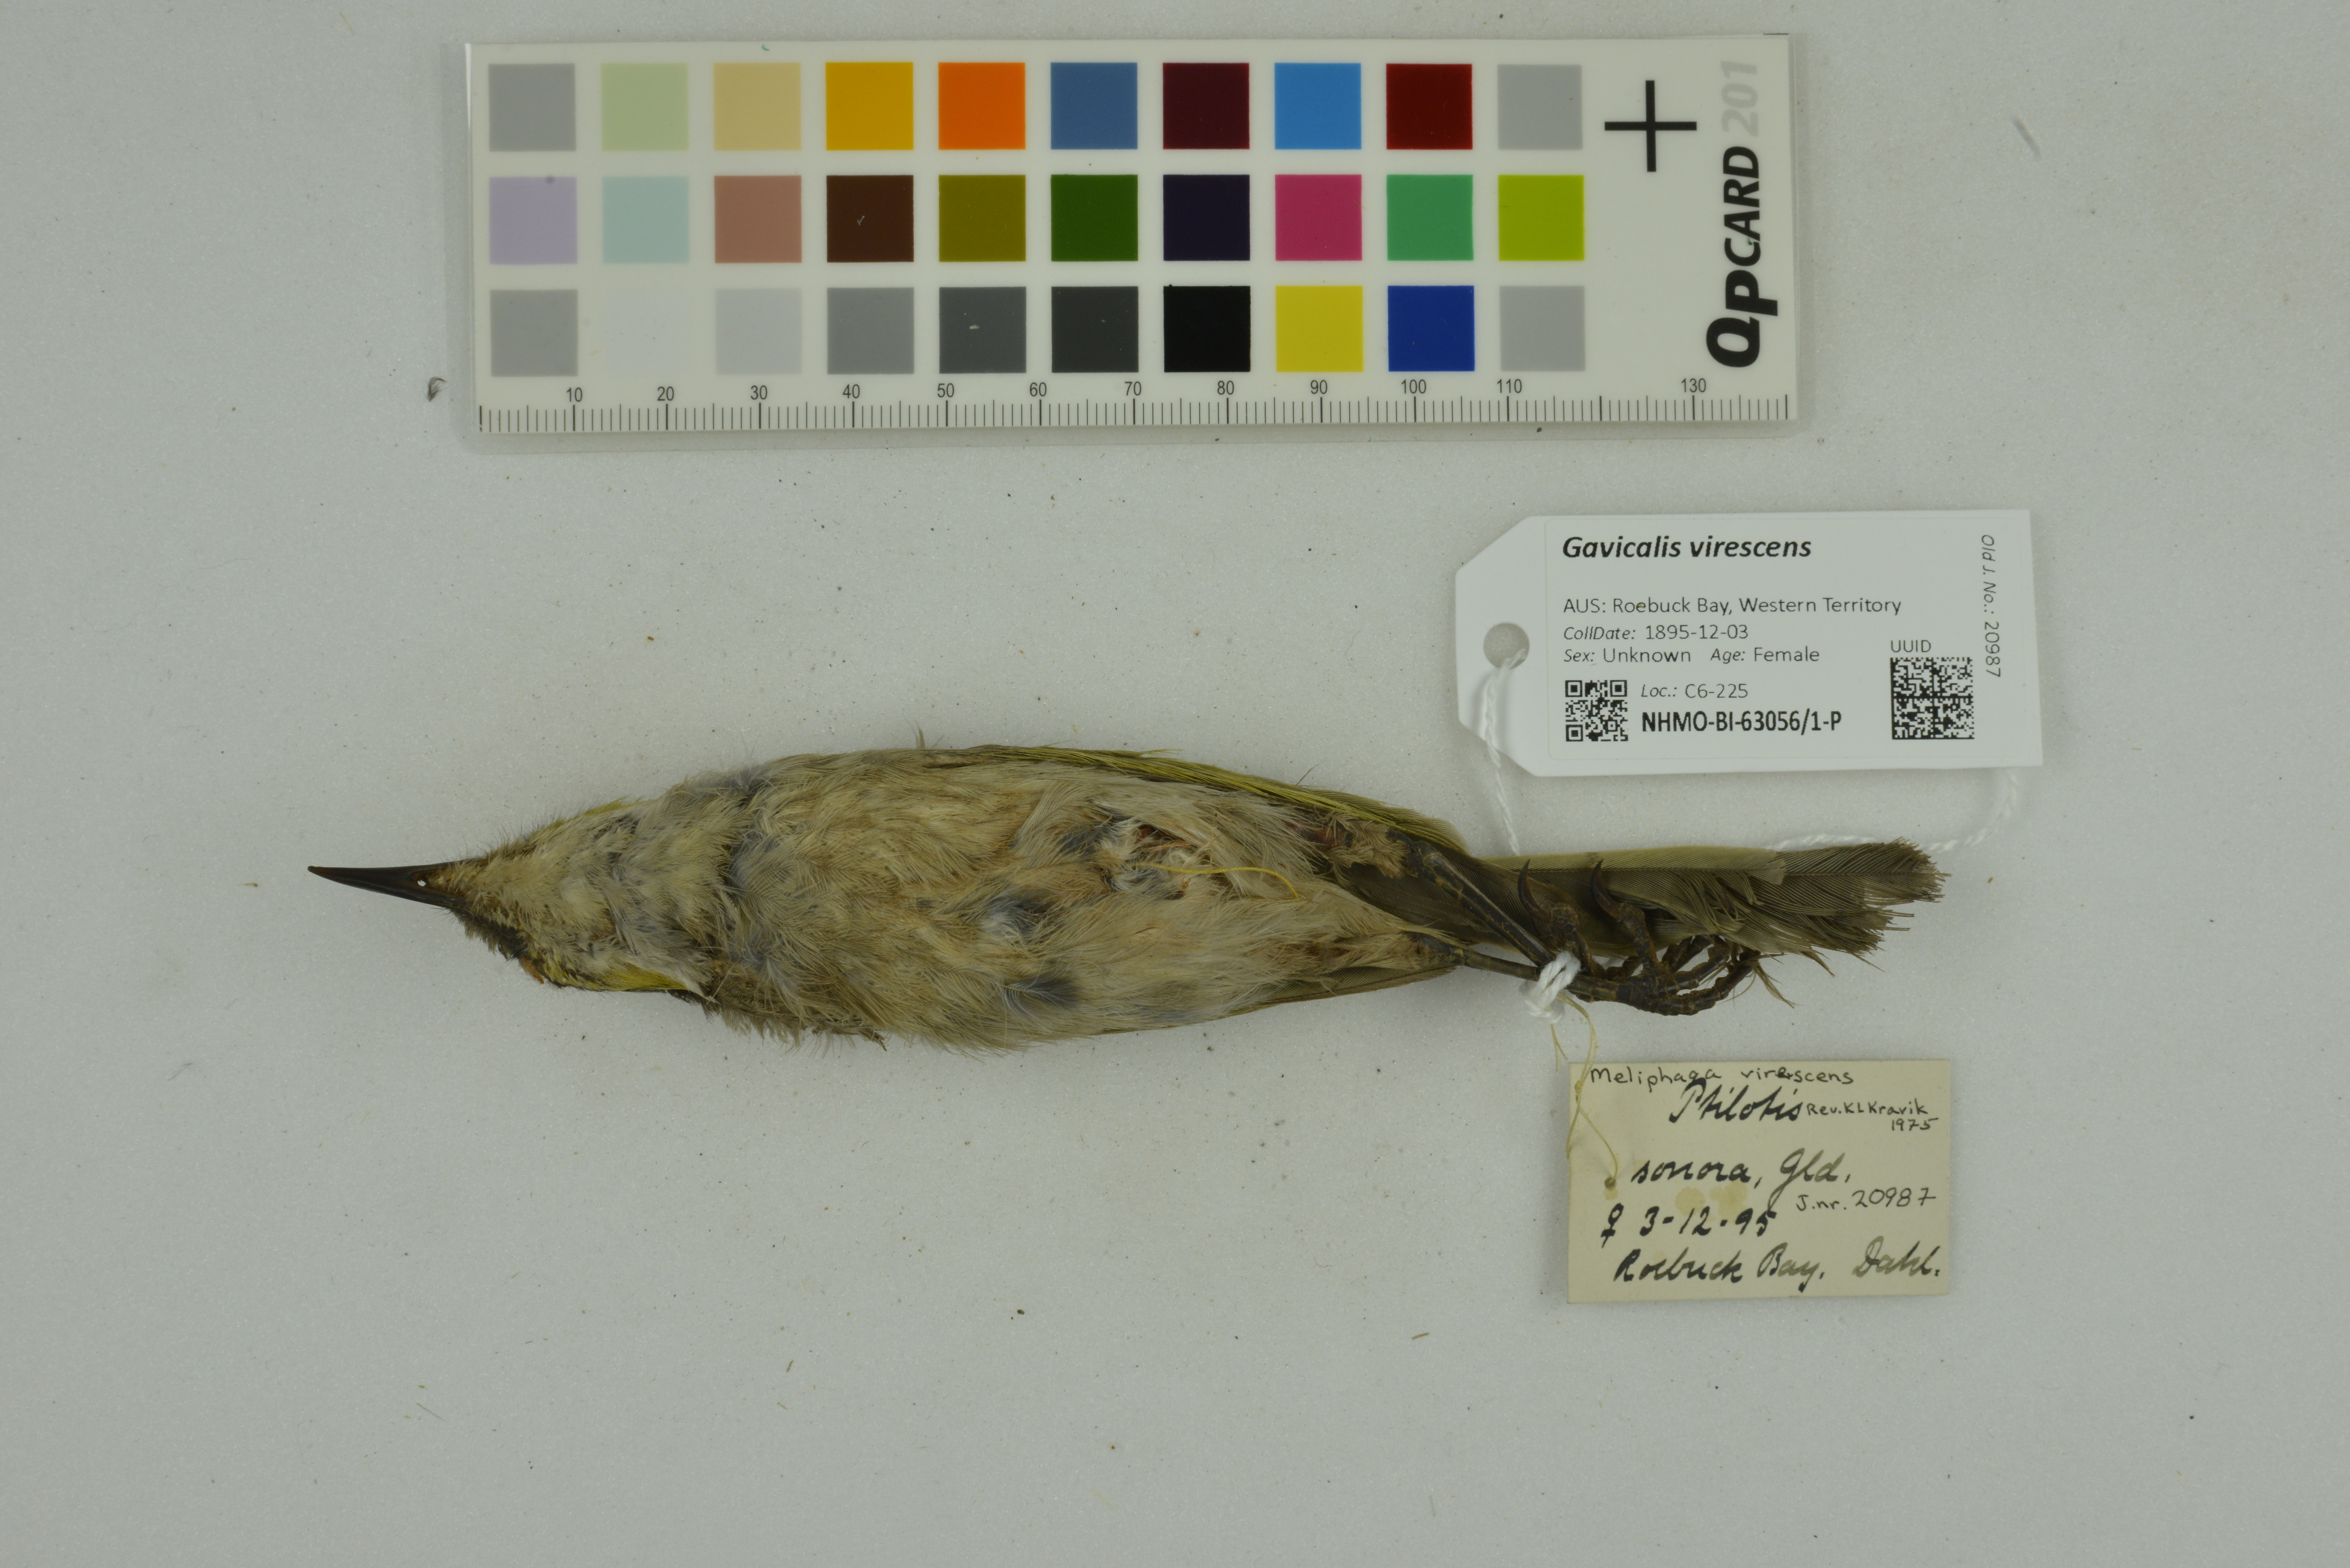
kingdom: Animalia
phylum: Chordata
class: Aves
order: Passeriformes
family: Meliphagidae
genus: Gavicalis
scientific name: Gavicalis virescens
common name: Singing honeyeater
